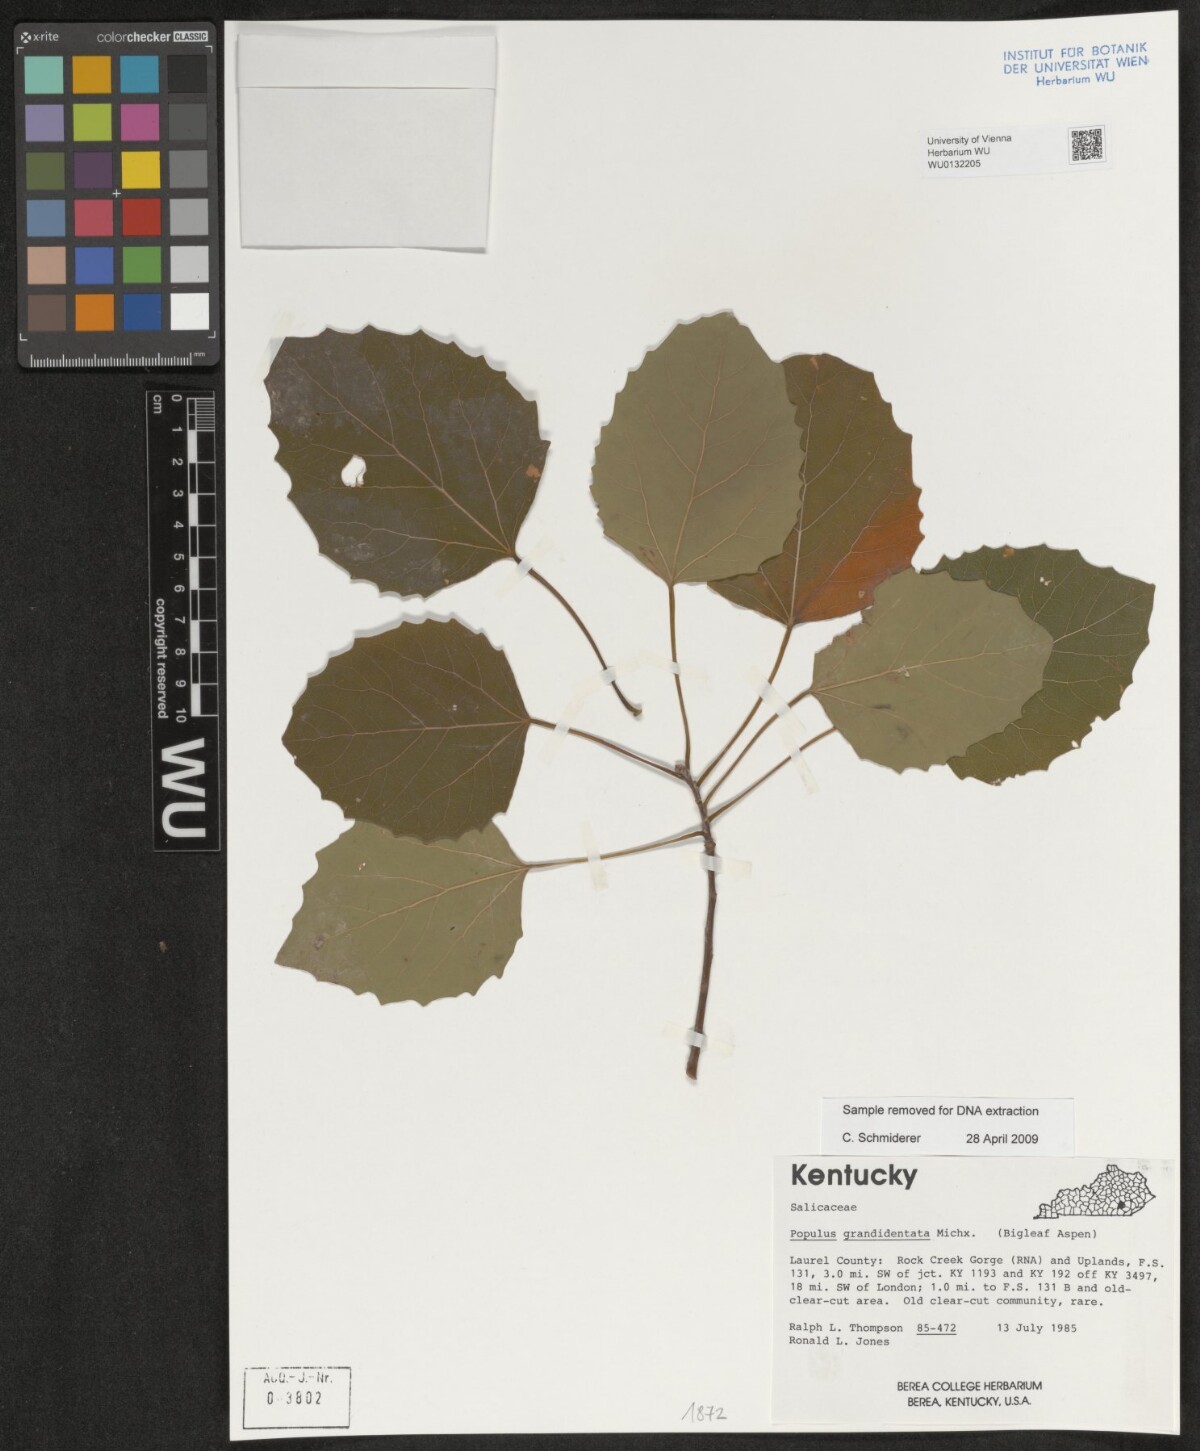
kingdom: Plantae
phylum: Tracheophyta
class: Magnoliopsida
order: Malpighiales
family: Salicaceae
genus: Populus
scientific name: Populus grandidentata
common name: Bigtooth aspen
